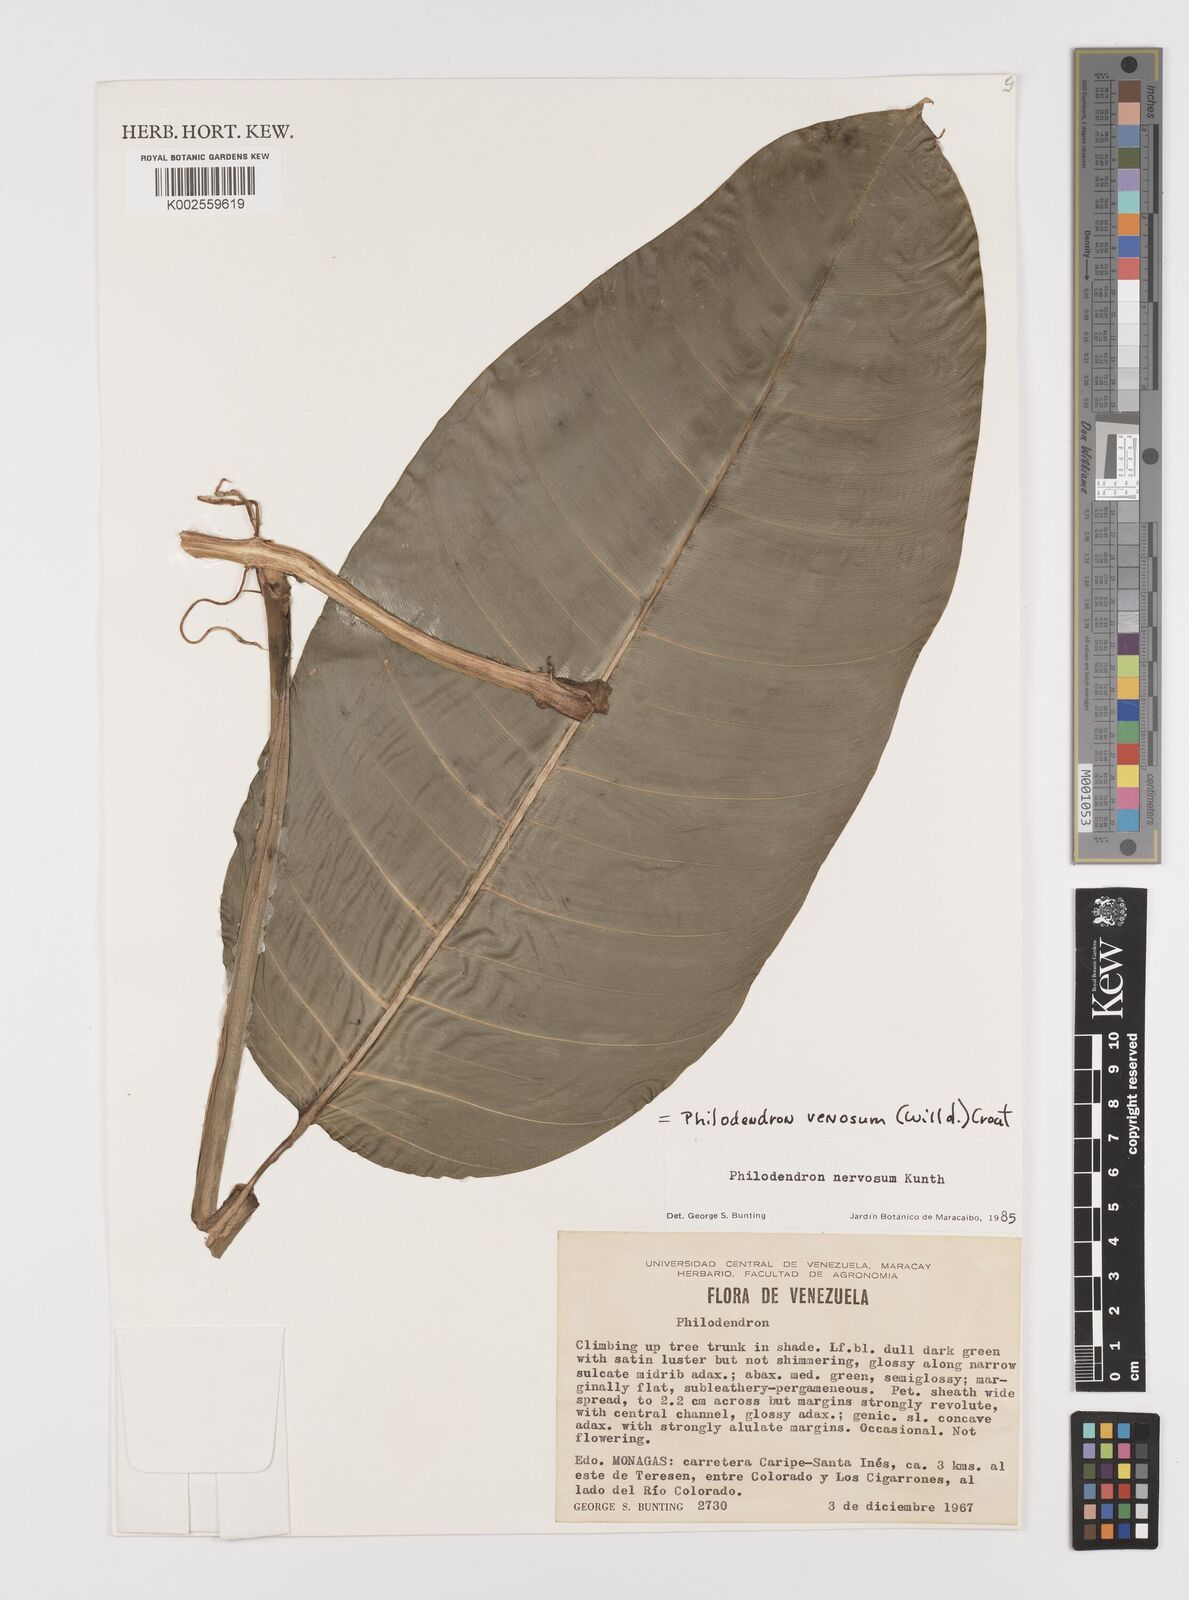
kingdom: Plantae
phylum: Tracheophyta
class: Liliopsida
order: Alismatales
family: Araceae
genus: Philodendron
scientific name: Philodendron venosum
